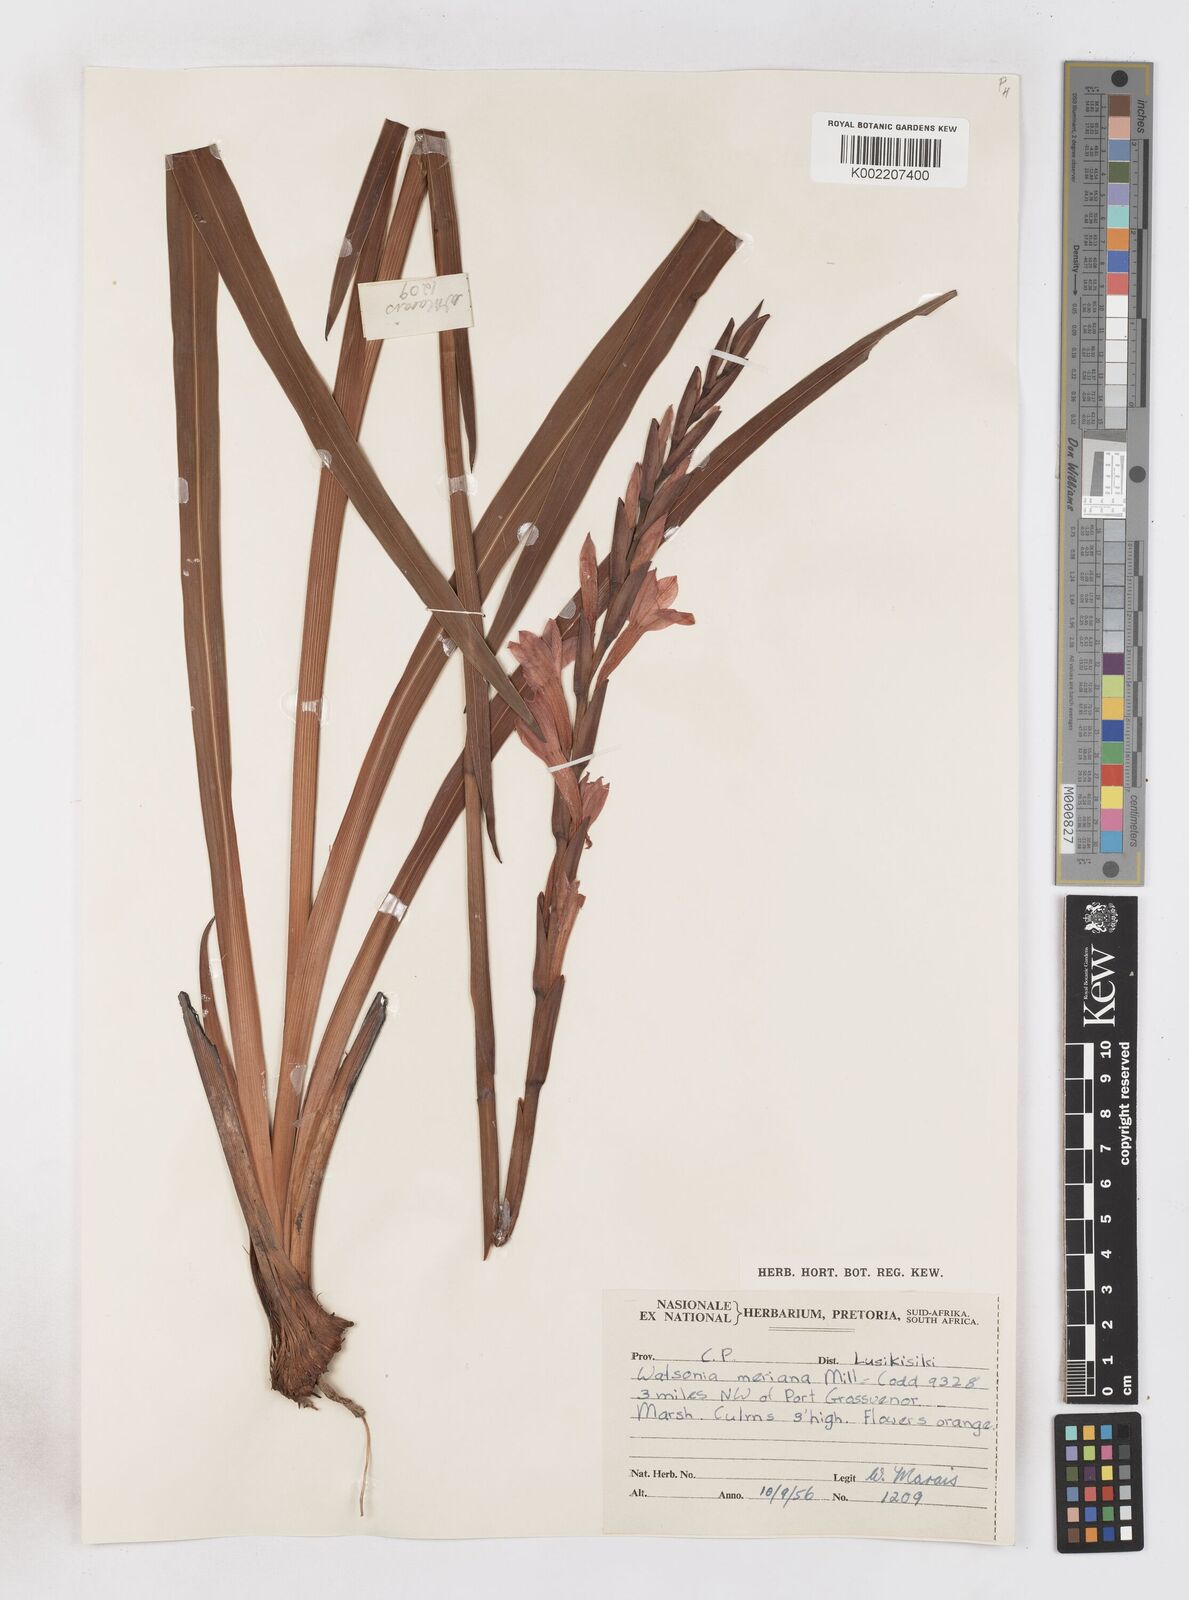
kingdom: Plantae
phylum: Tracheophyta
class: Liliopsida
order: Asparagales
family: Iridaceae
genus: Watsonia
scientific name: Watsonia pillansii
